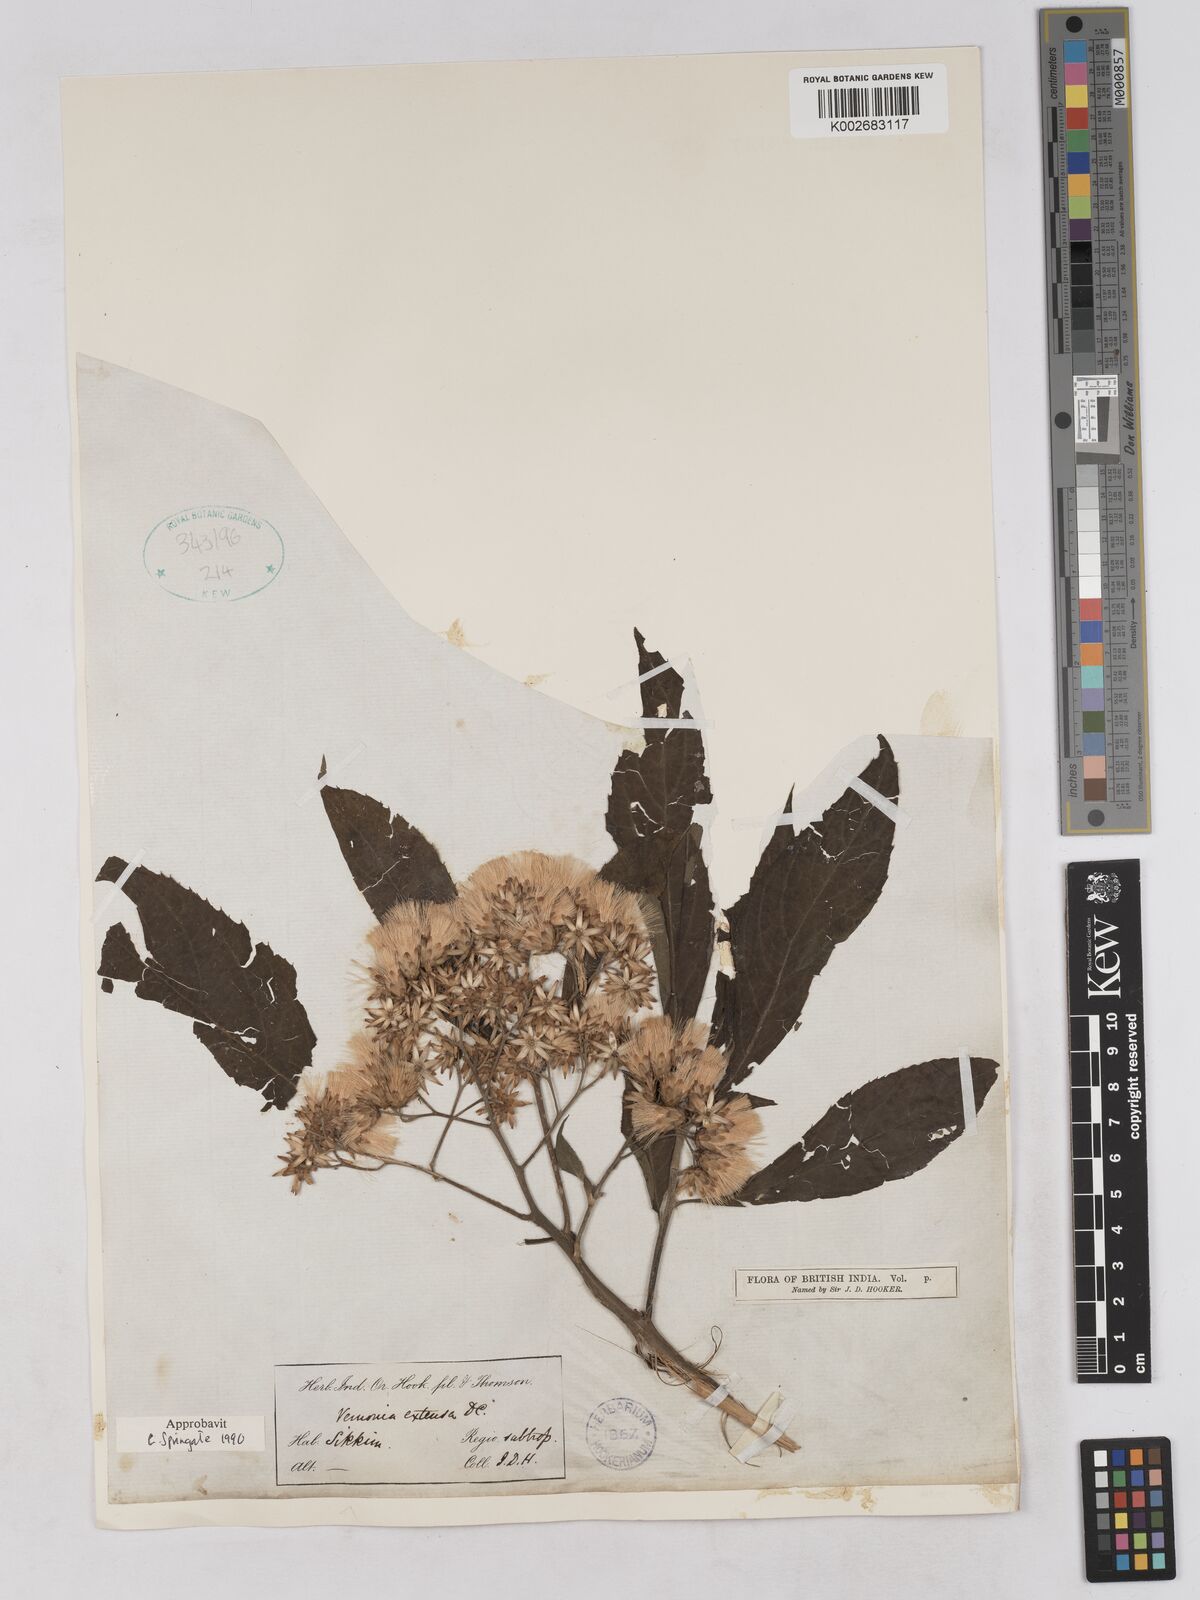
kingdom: Plantae
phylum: Tracheophyta
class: Magnoliopsida
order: Asterales
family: Asteraceae
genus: Gymnanthemum
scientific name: Gymnanthemum extensum
